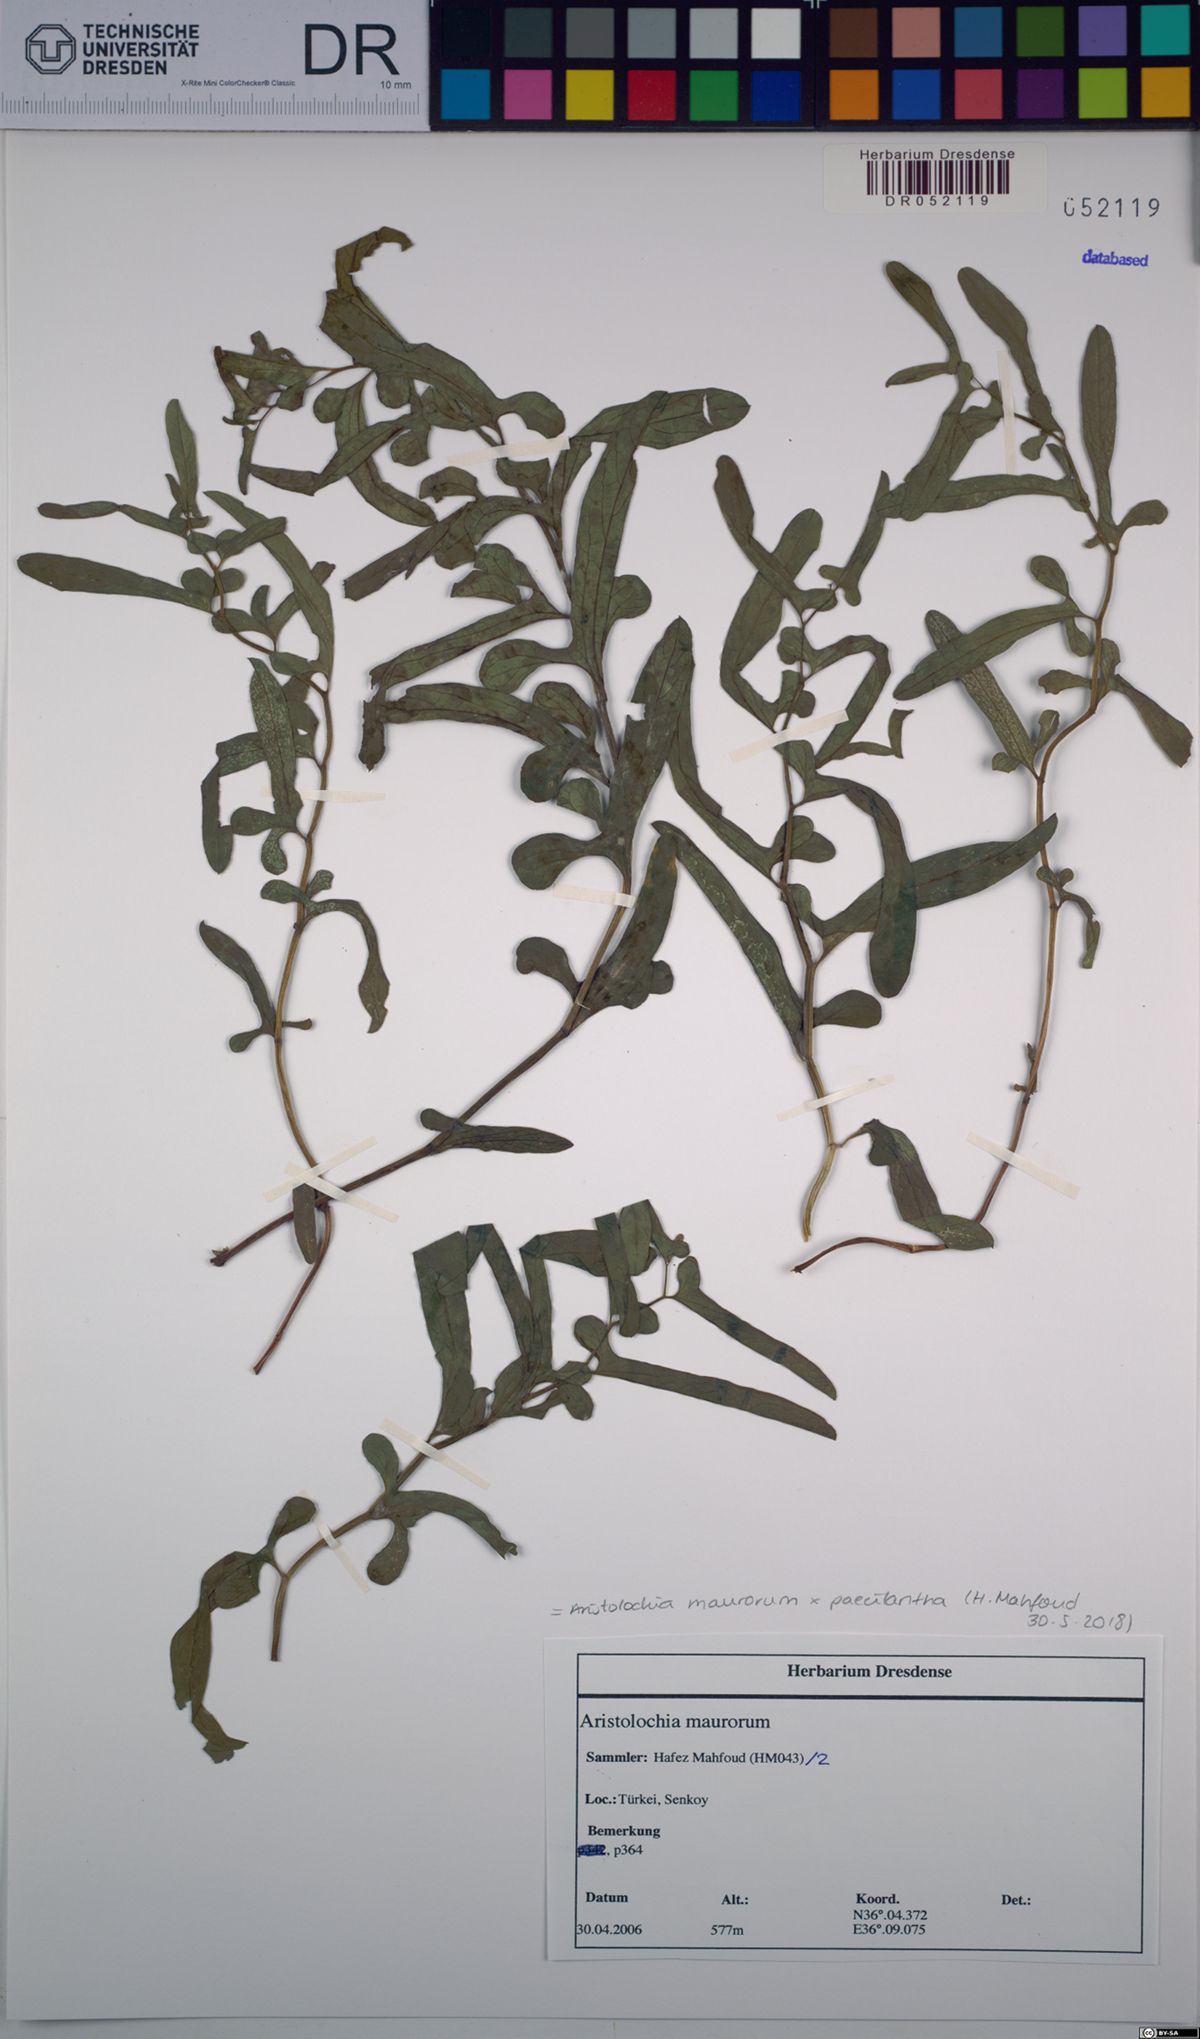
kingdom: Plantae
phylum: Tracheophyta
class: Magnoliopsida
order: Piperales
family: Aristolochiaceae
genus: Aristolochia
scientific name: Aristolochia maurorum
